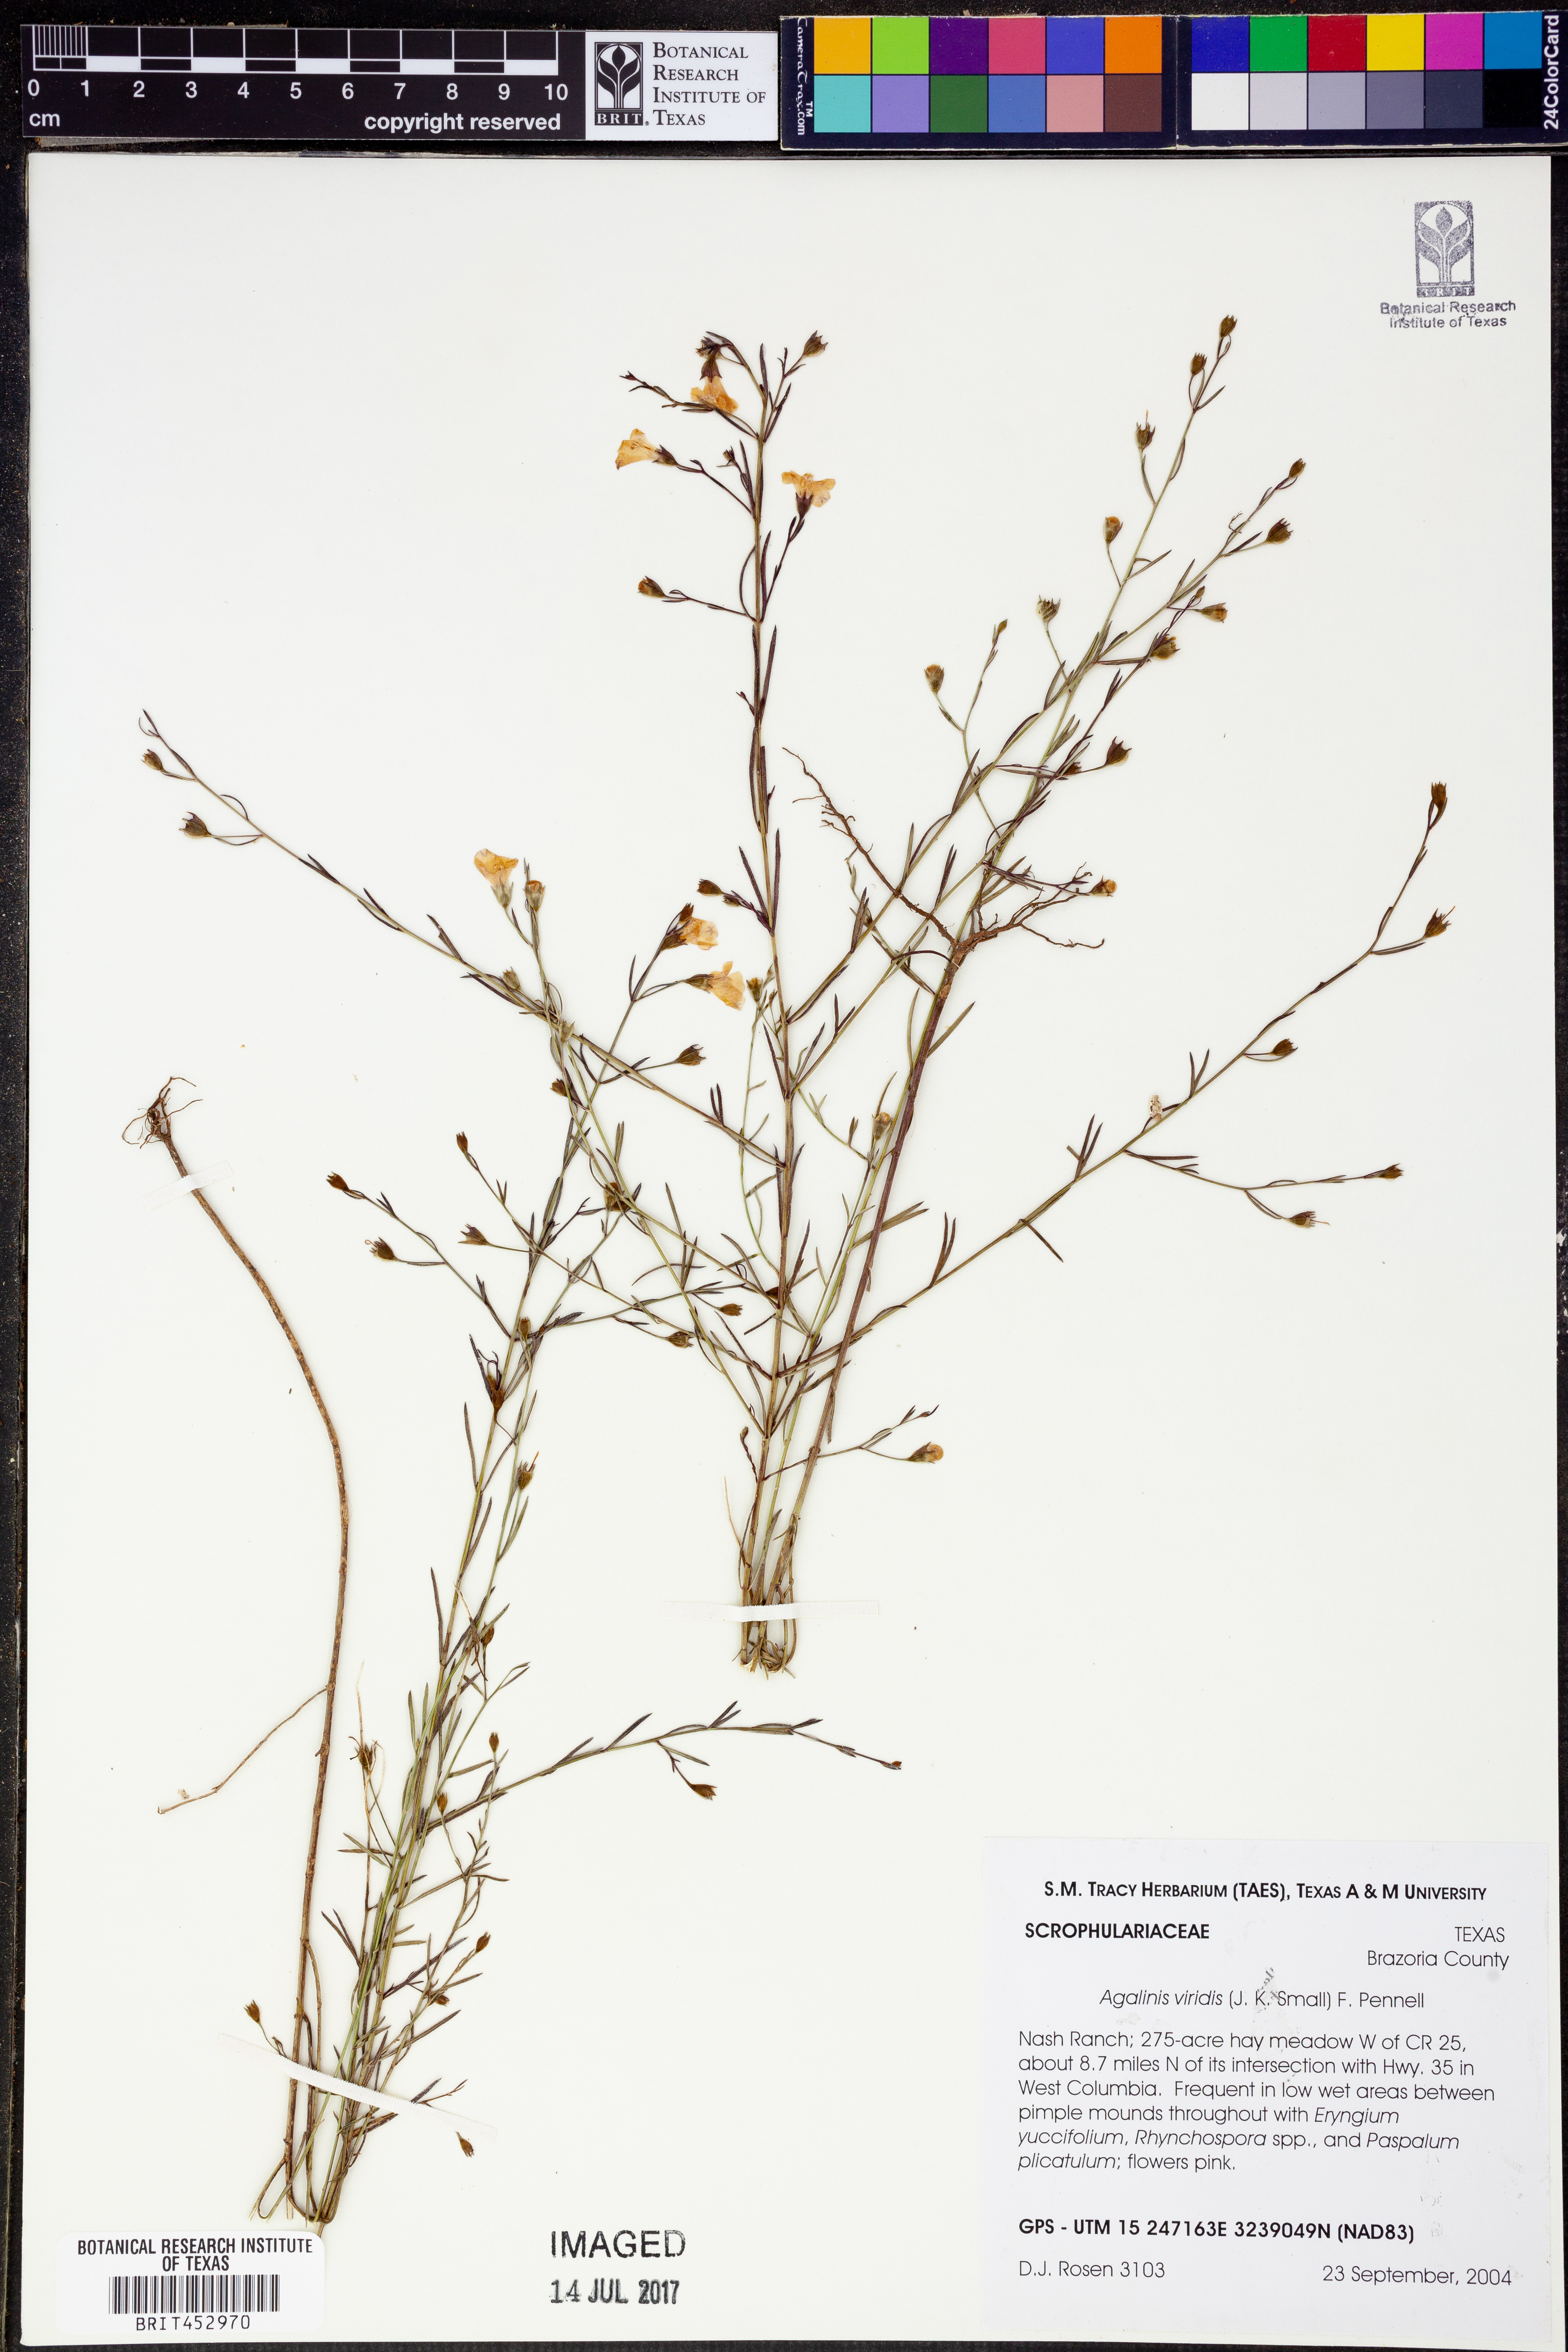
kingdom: Plantae
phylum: Tracheophyta
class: Magnoliopsida
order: Lamiales
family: Orobanchaceae
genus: Agalinis
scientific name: Agalinis viridis
